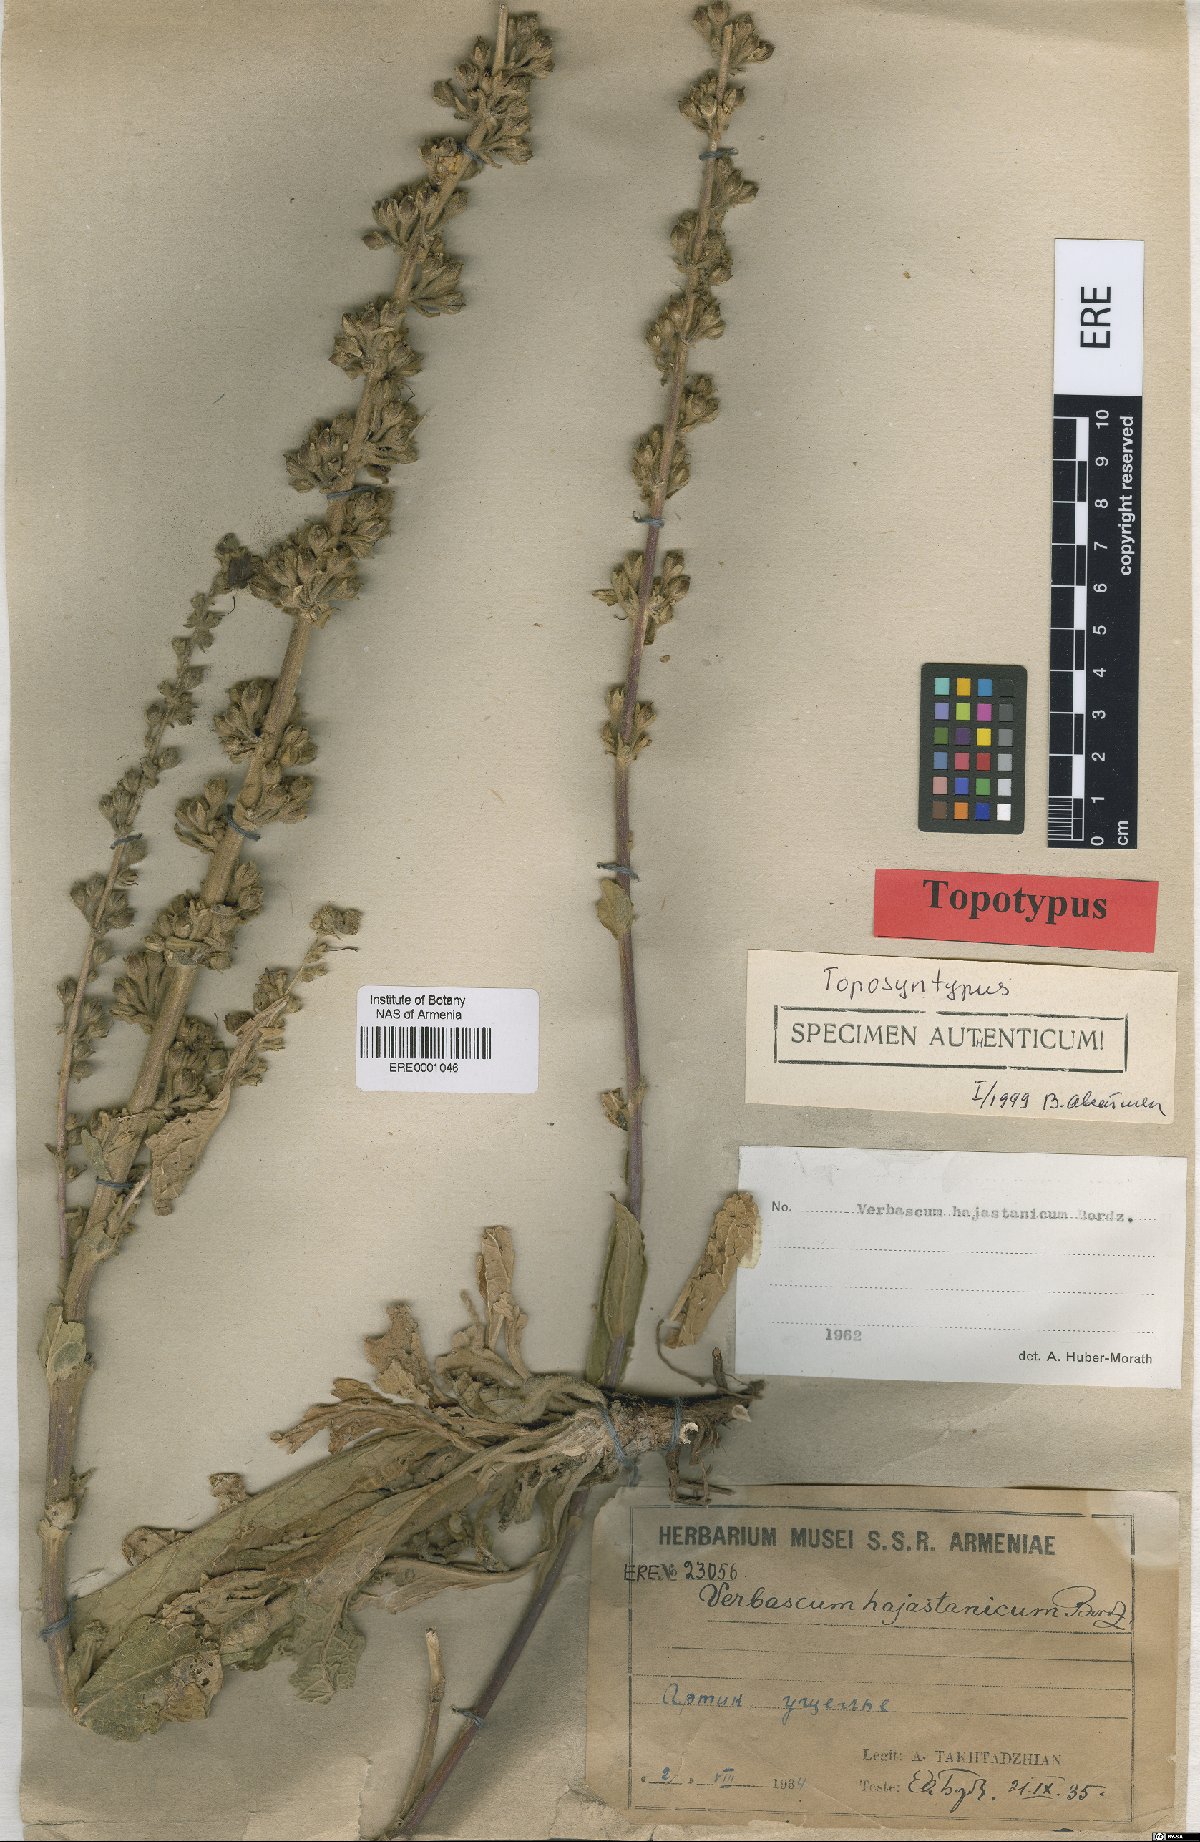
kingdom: Plantae
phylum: Tracheophyta
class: Magnoliopsida
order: Lamiales
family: Scrophulariaceae
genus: Verbascum
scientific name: Verbascum hajastanicum
